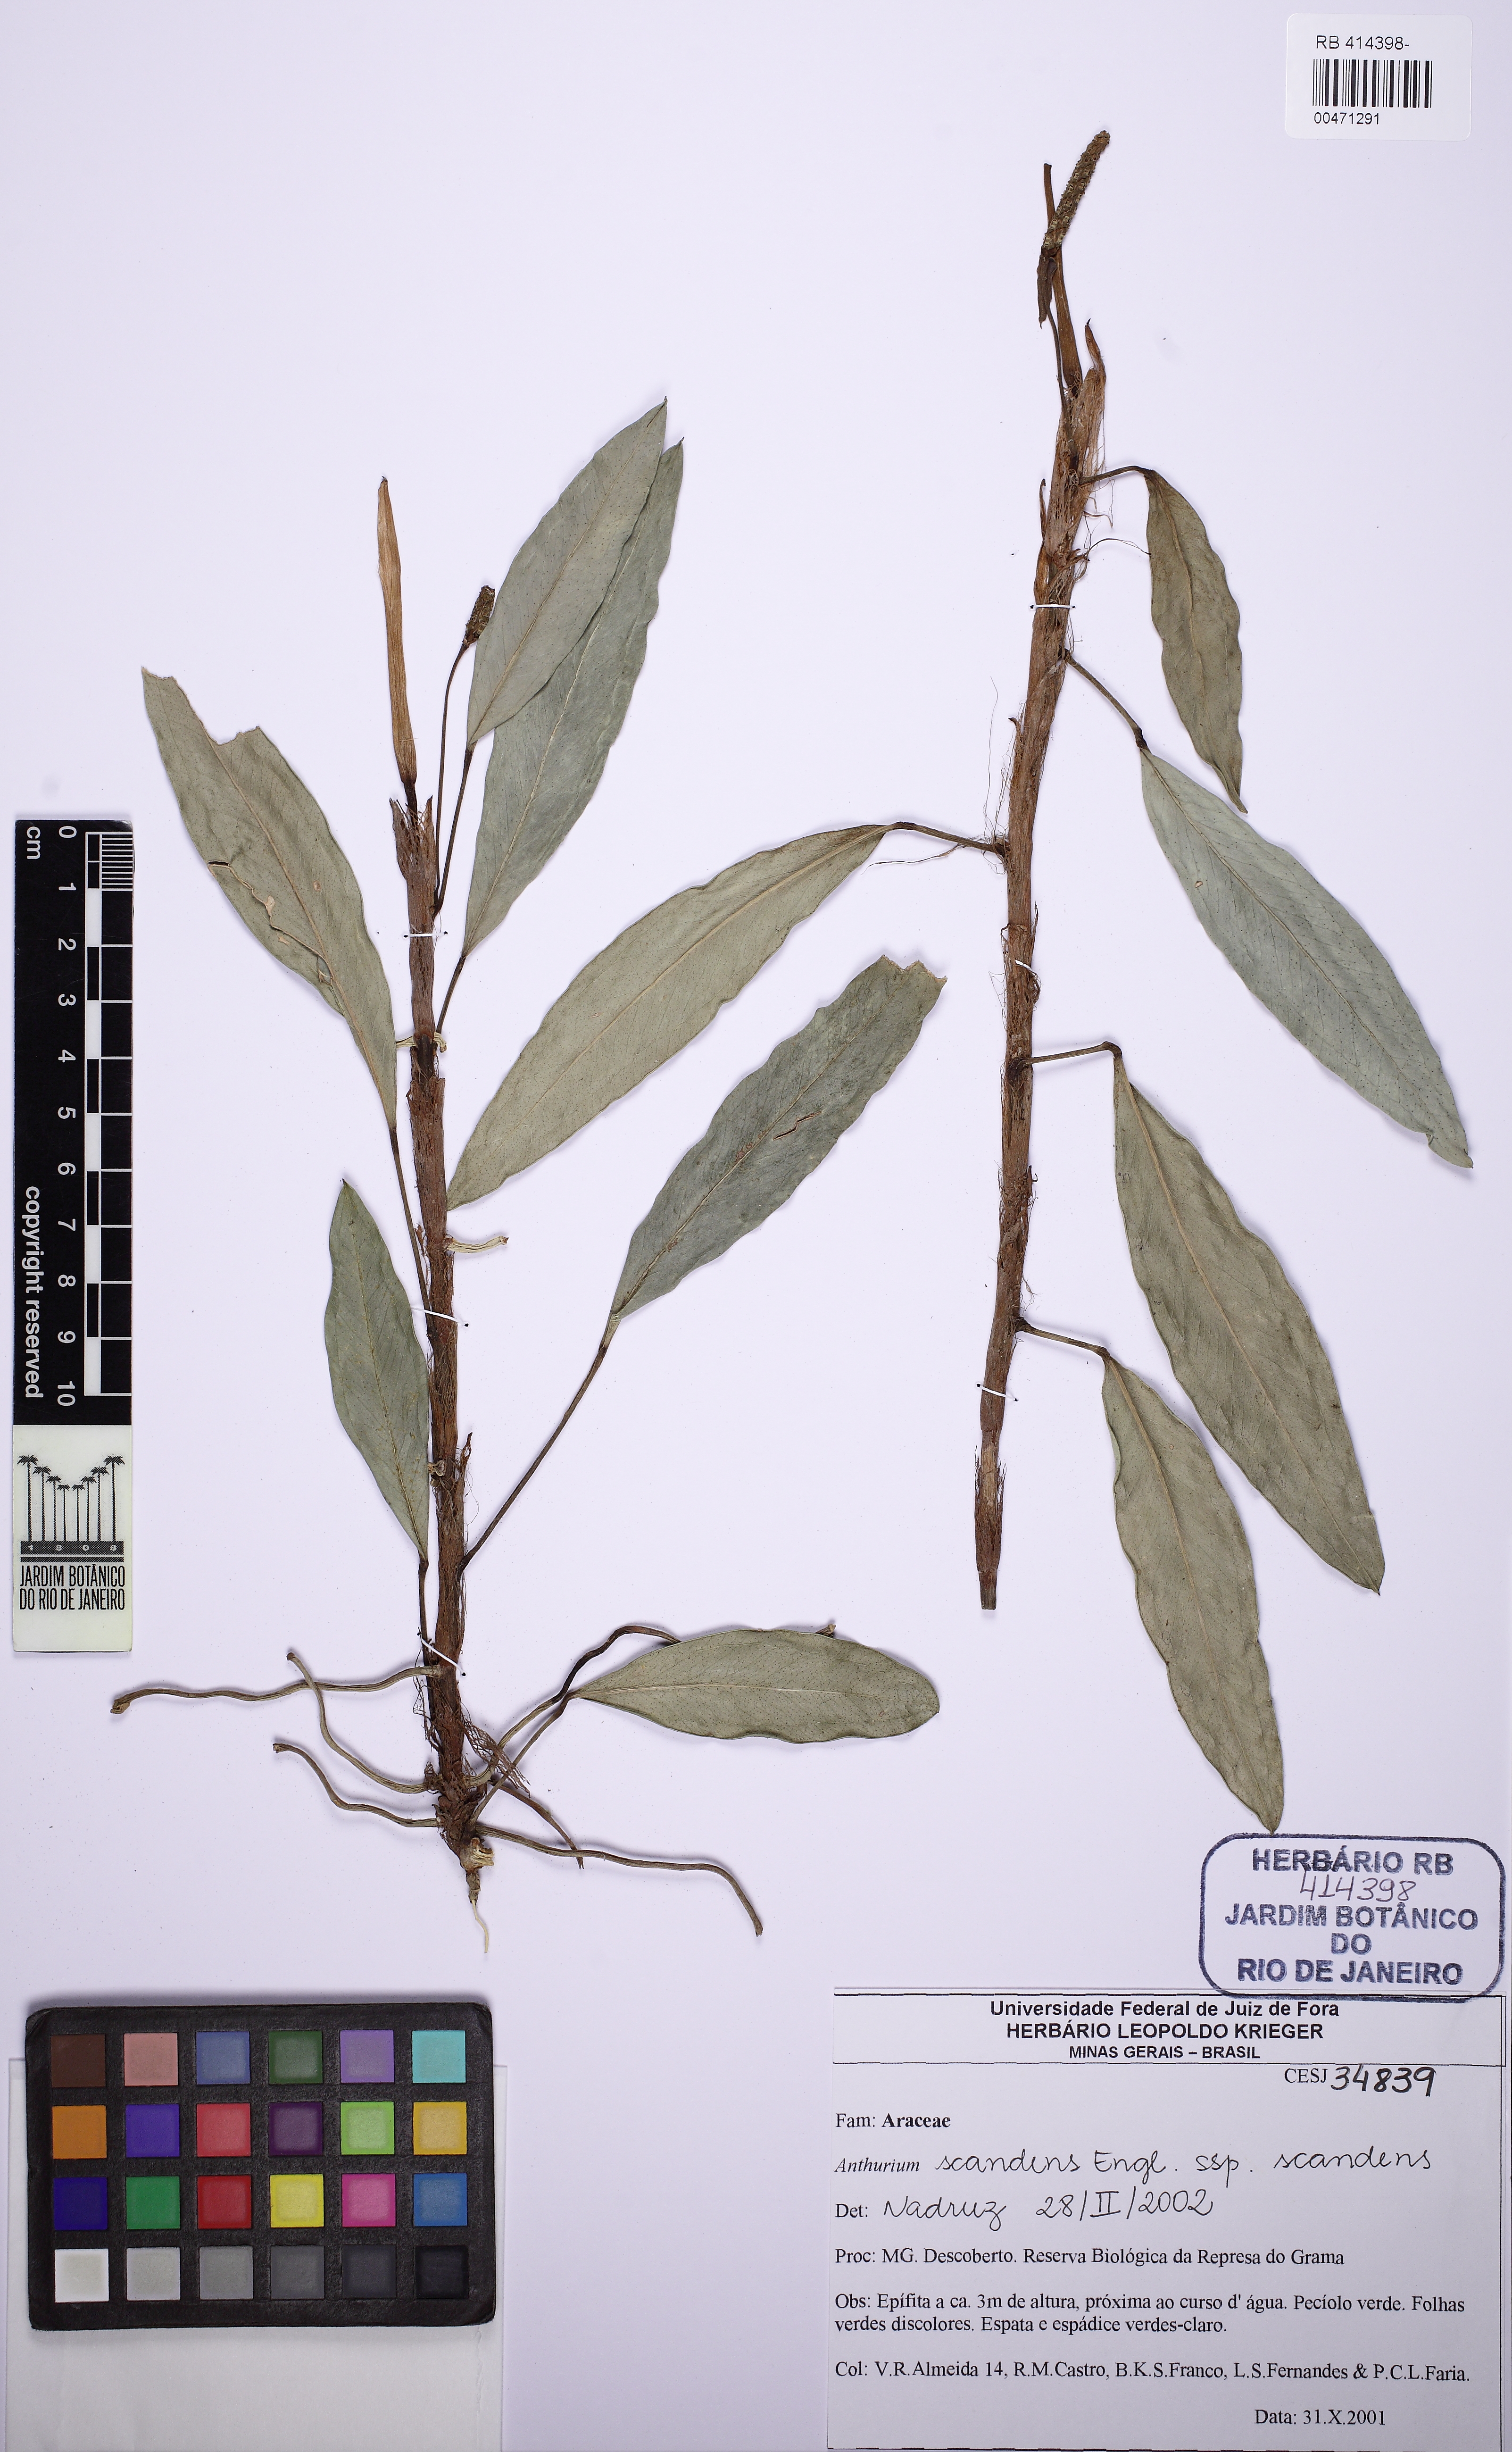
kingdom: Plantae
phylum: Tracheophyta
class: Liliopsida
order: Alismatales
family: Araceae
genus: Anthurium
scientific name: Anthurium scandens
